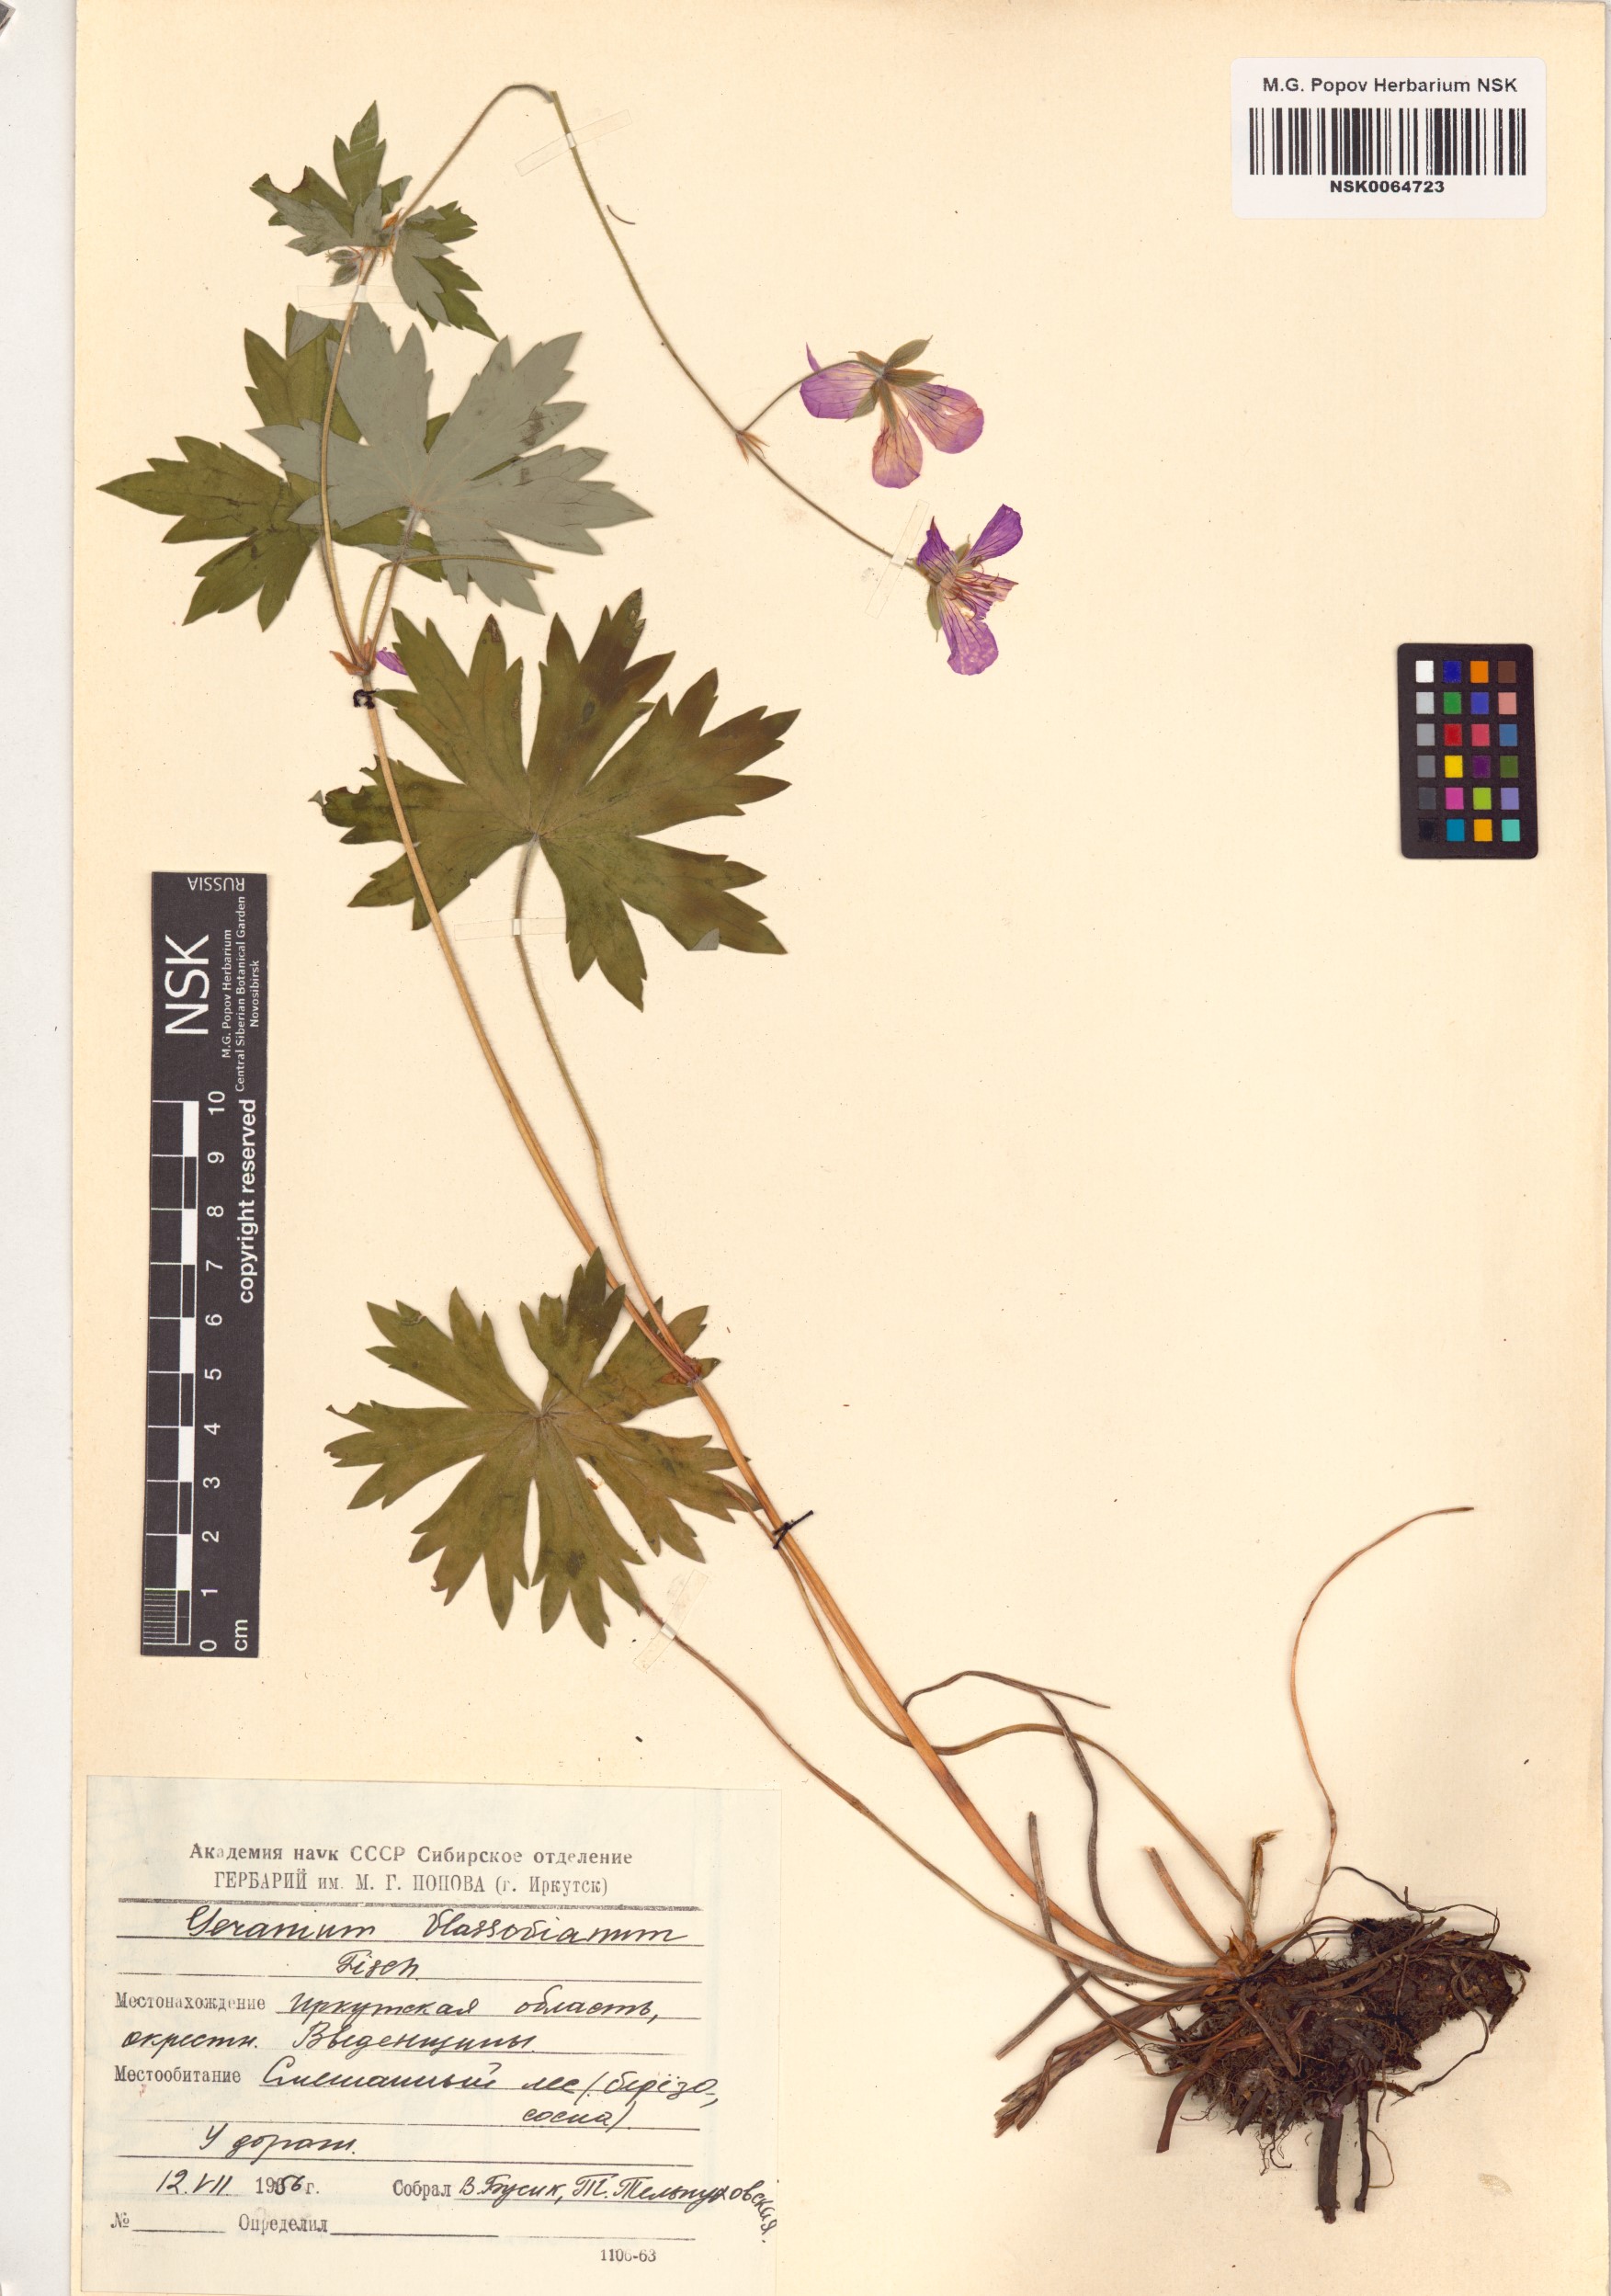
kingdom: Plantae
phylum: Tracheophyta
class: Magnoliopsida
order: Geraniales
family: Geraniaceae
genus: Geranium
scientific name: Geranium wlassovianum
